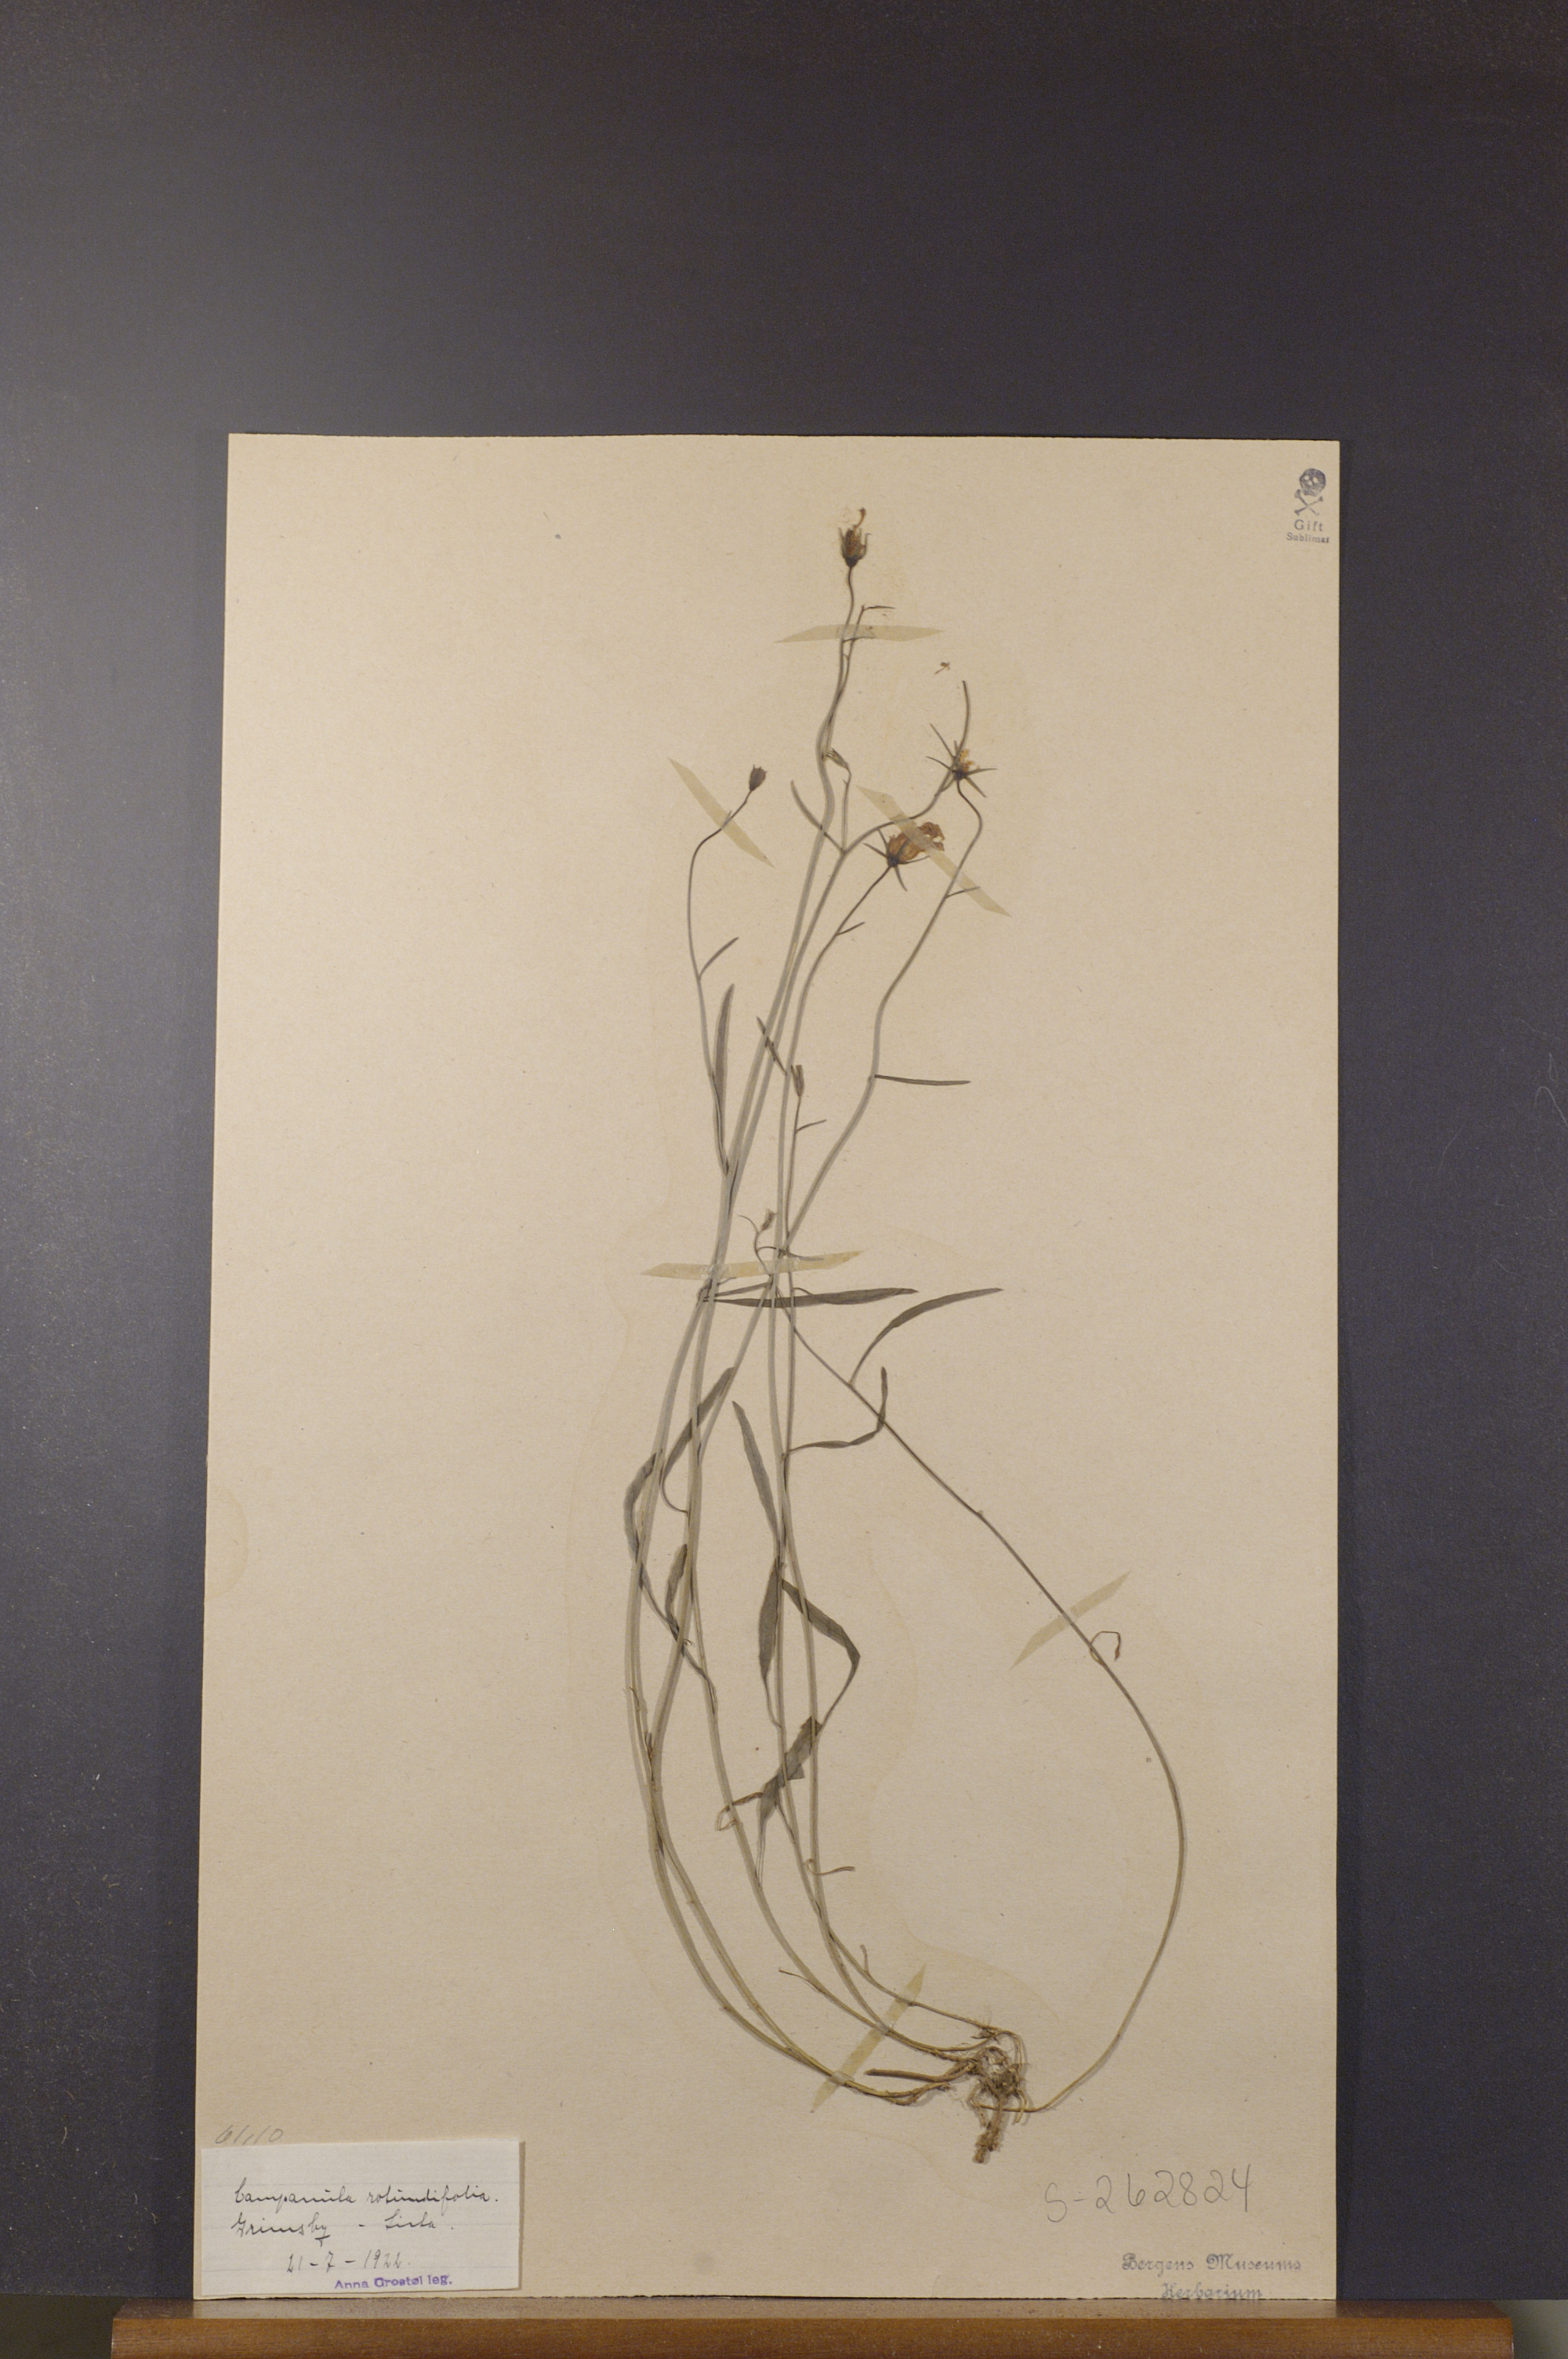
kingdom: Plantae
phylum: Tracheophyta
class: Magnoliopsida
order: Asterales
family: Campanulaceae
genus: Campanula
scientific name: Campanula rotundifolia
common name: Harebell
